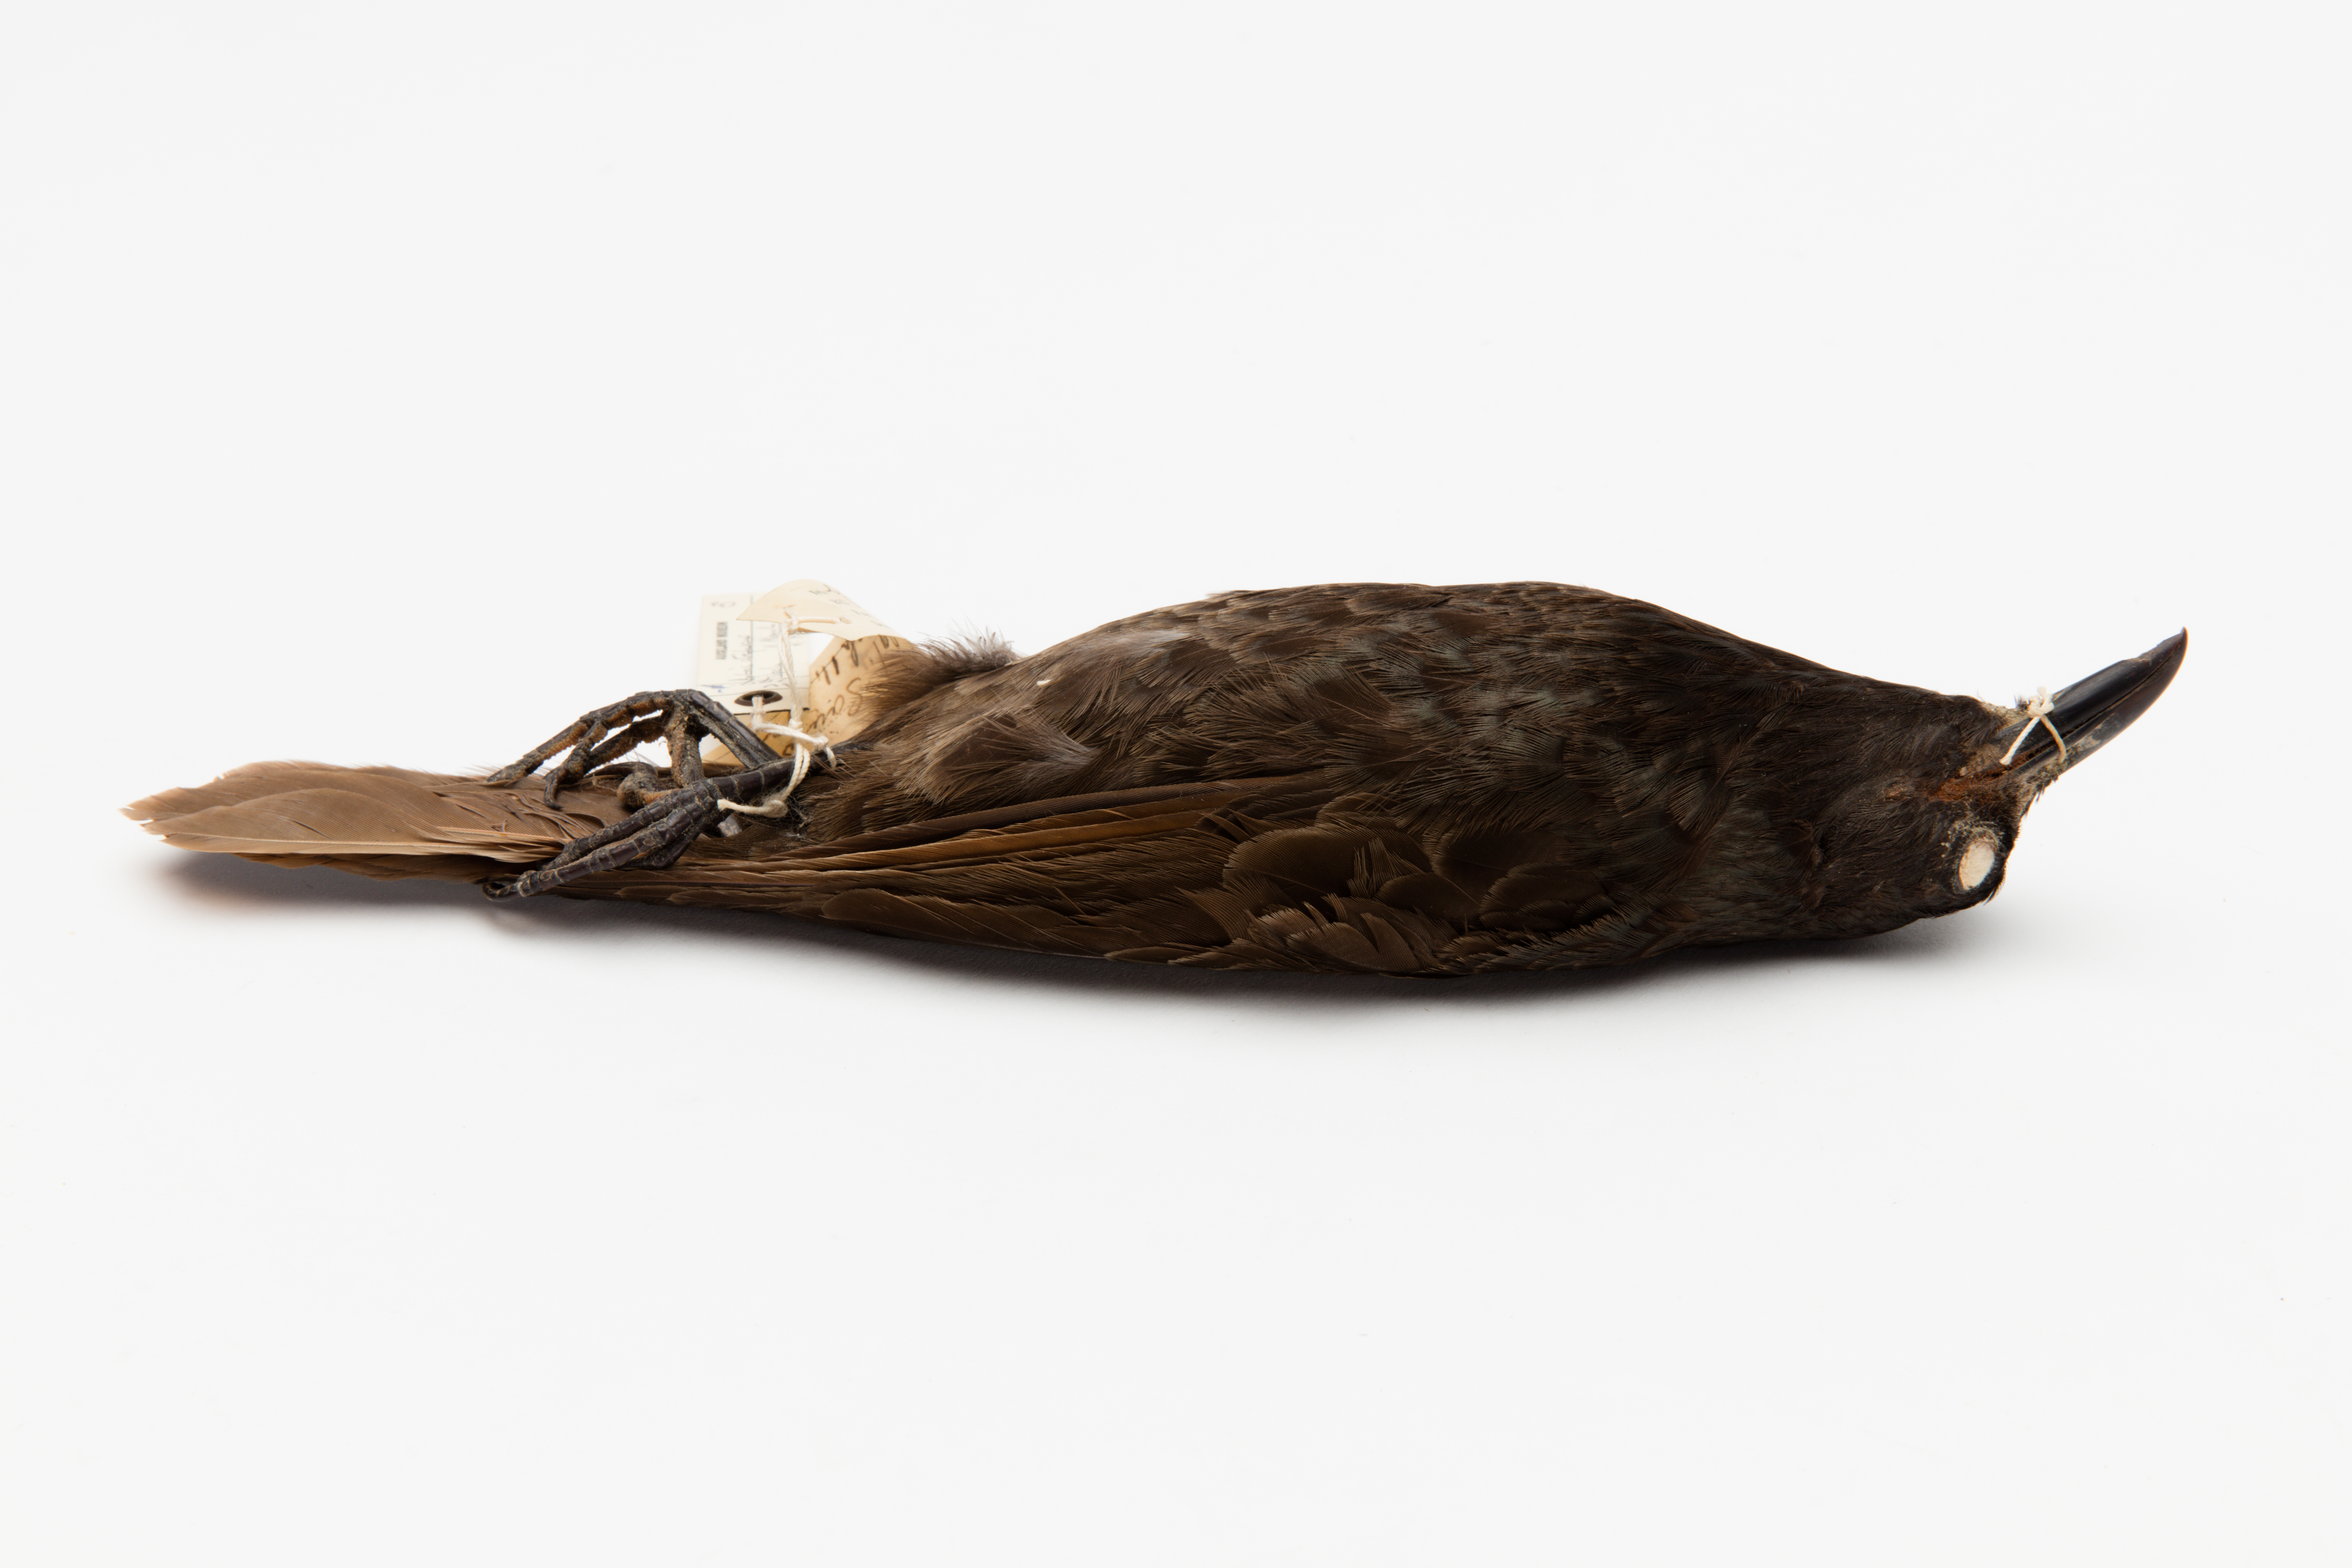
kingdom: Animalia
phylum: Chordata
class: Aves
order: Passeriformes
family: Sturnidae
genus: Aplonis
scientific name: Aplonis atrifusca
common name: Samoan starling
